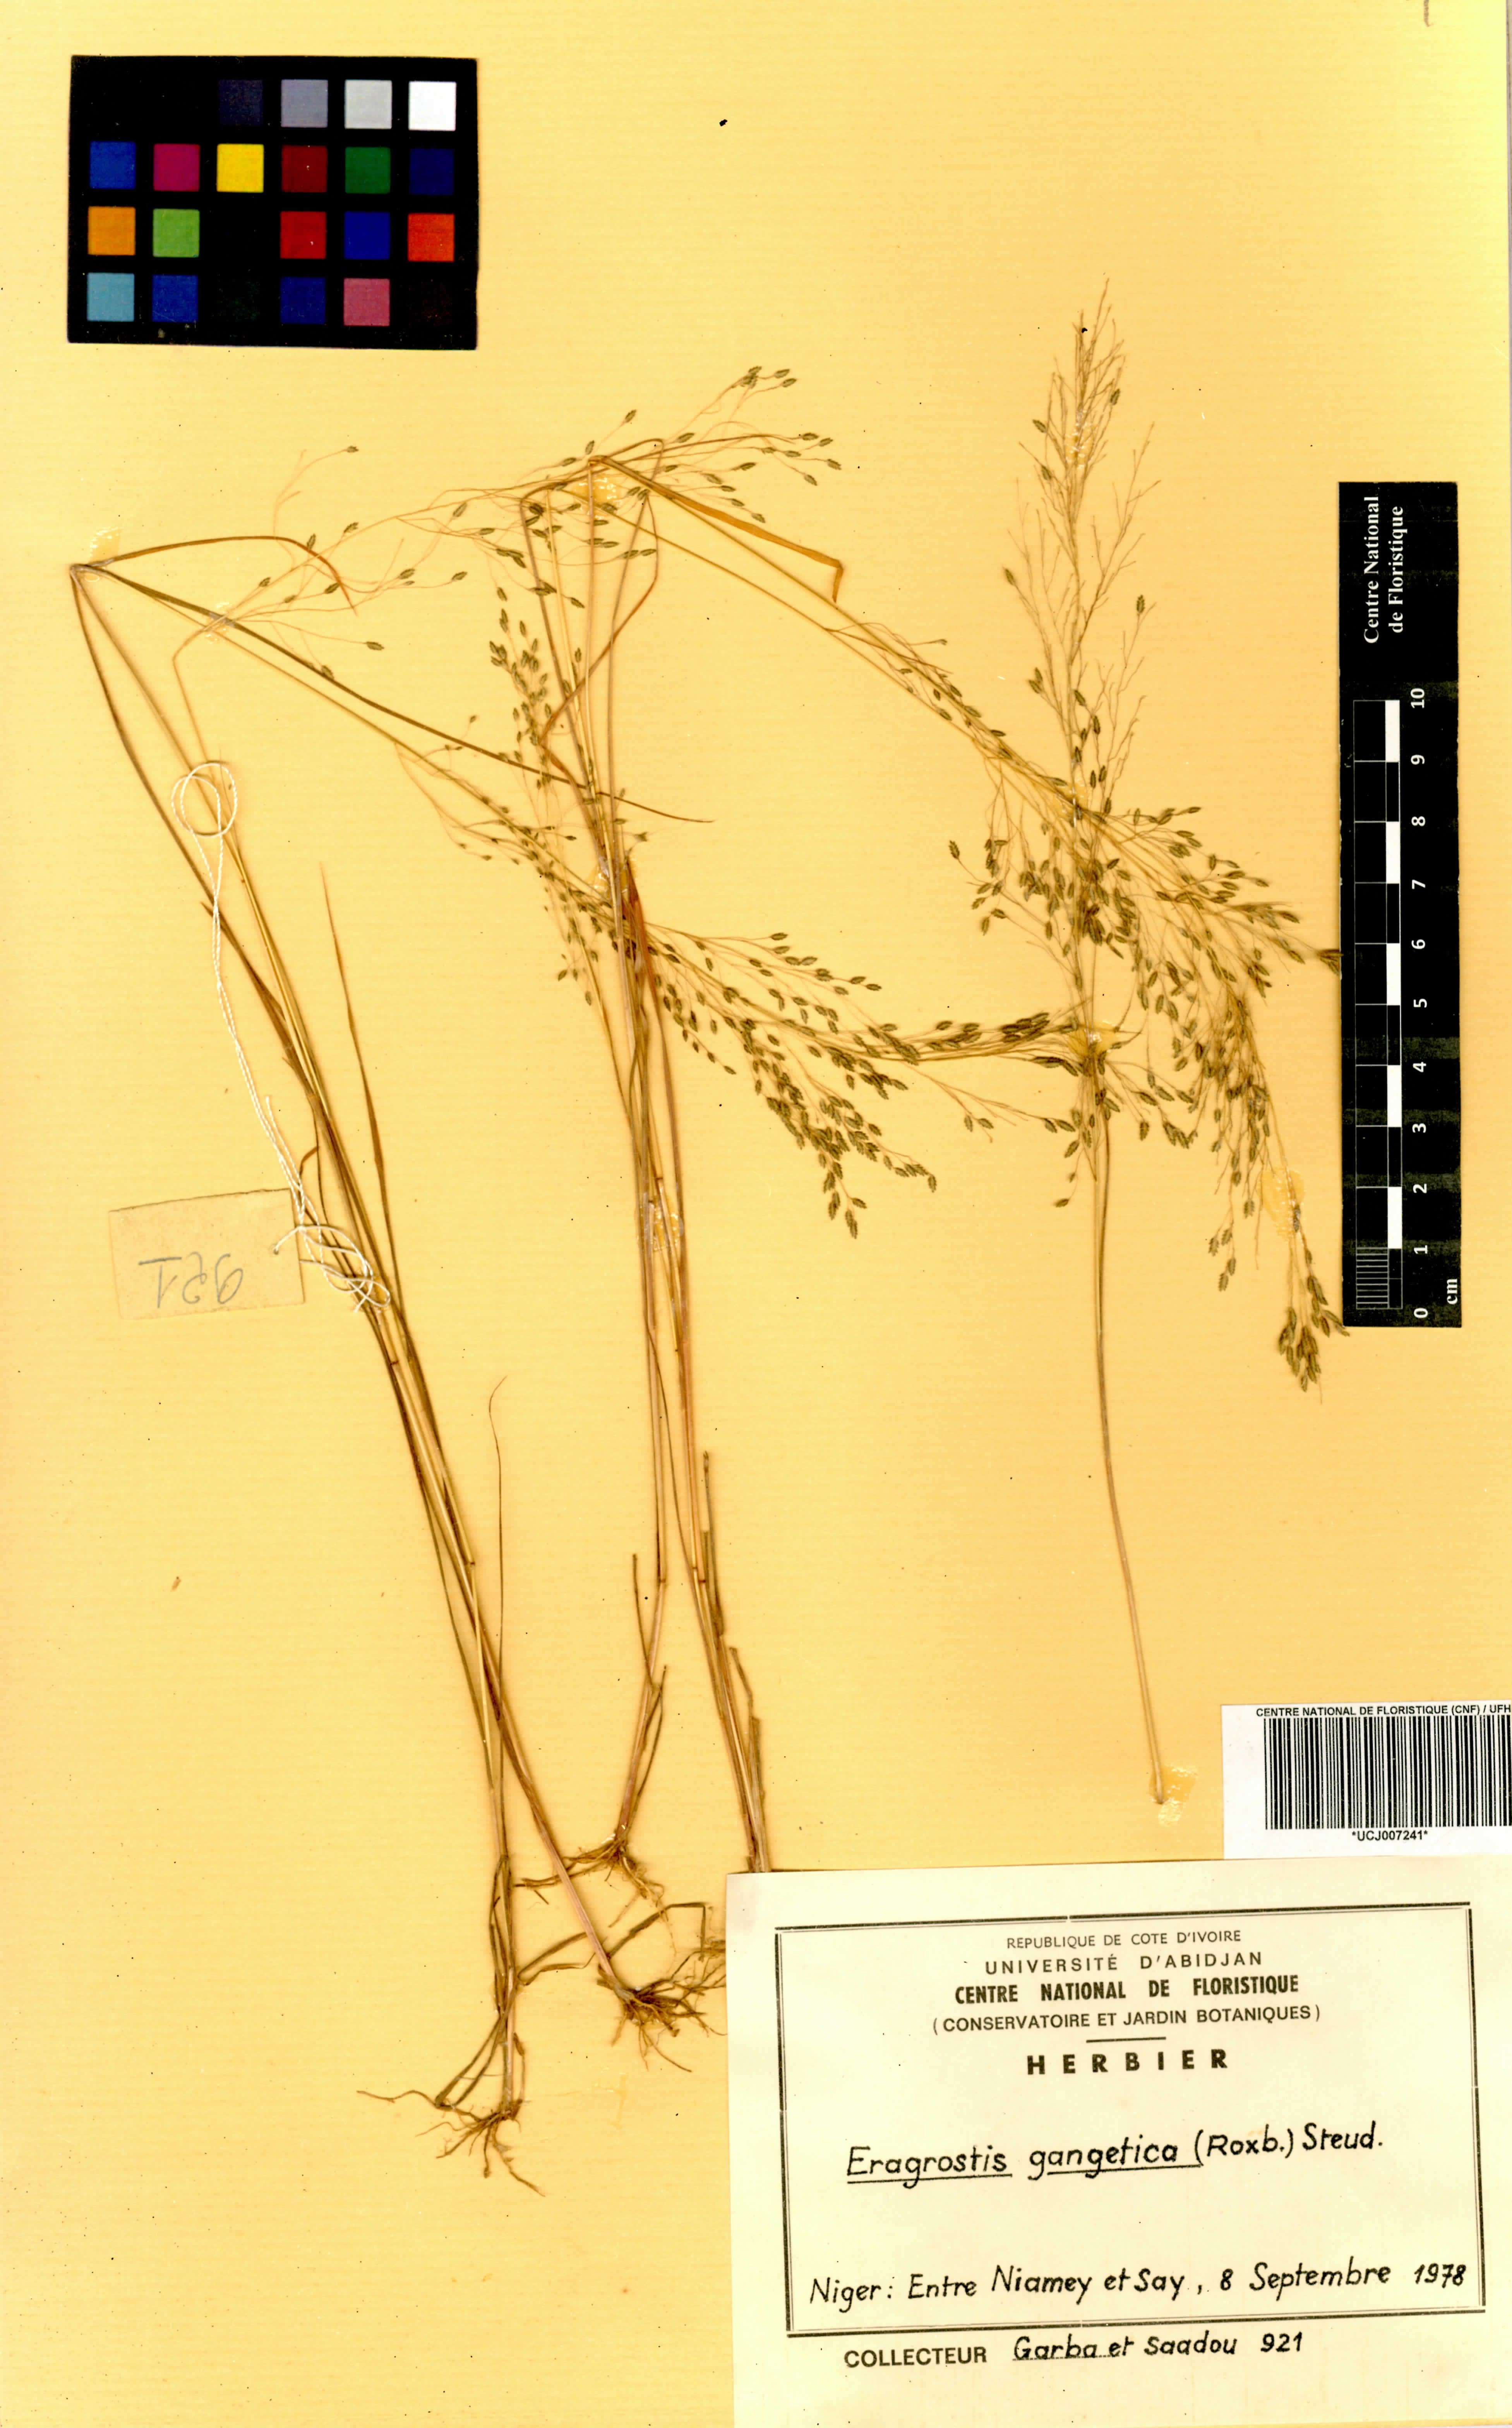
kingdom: Plantae
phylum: Tracheophyta
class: Liliopsida
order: Poales
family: Poaceae
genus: Eragrostis
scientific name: Eragrostis gangetica
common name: Slimflower lovegrass
